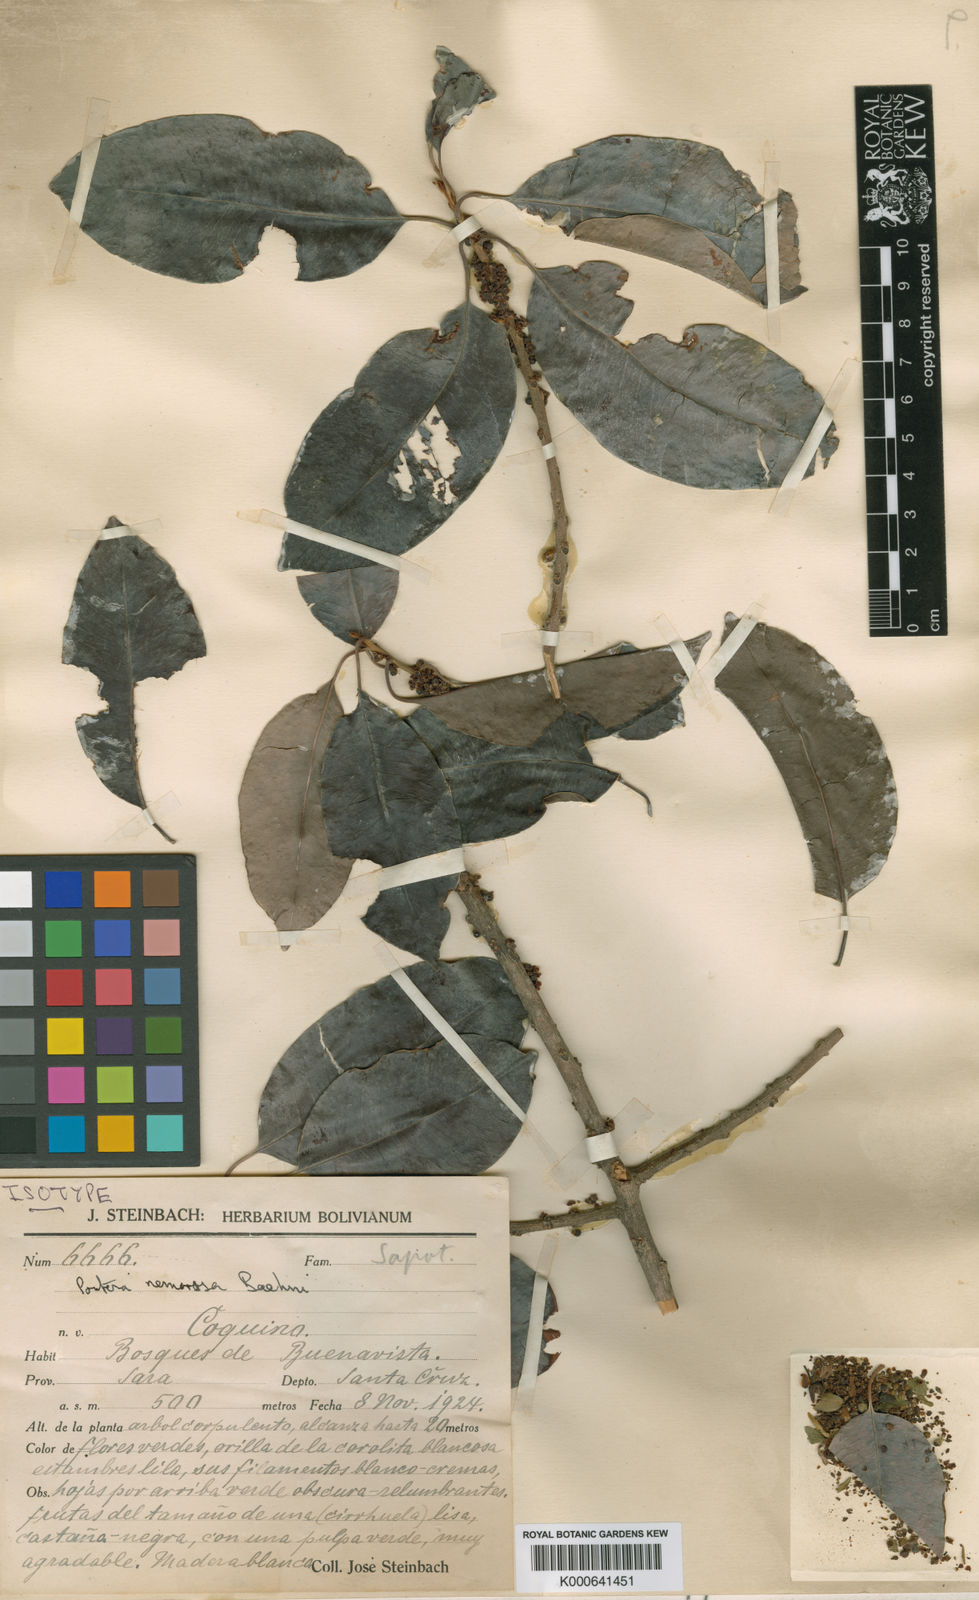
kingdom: Plantae
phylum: Tracheophyta
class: Magnoliopsida
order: Ericales
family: Sapotaceae
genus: Pouteria
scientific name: Pouteria nemorosa
